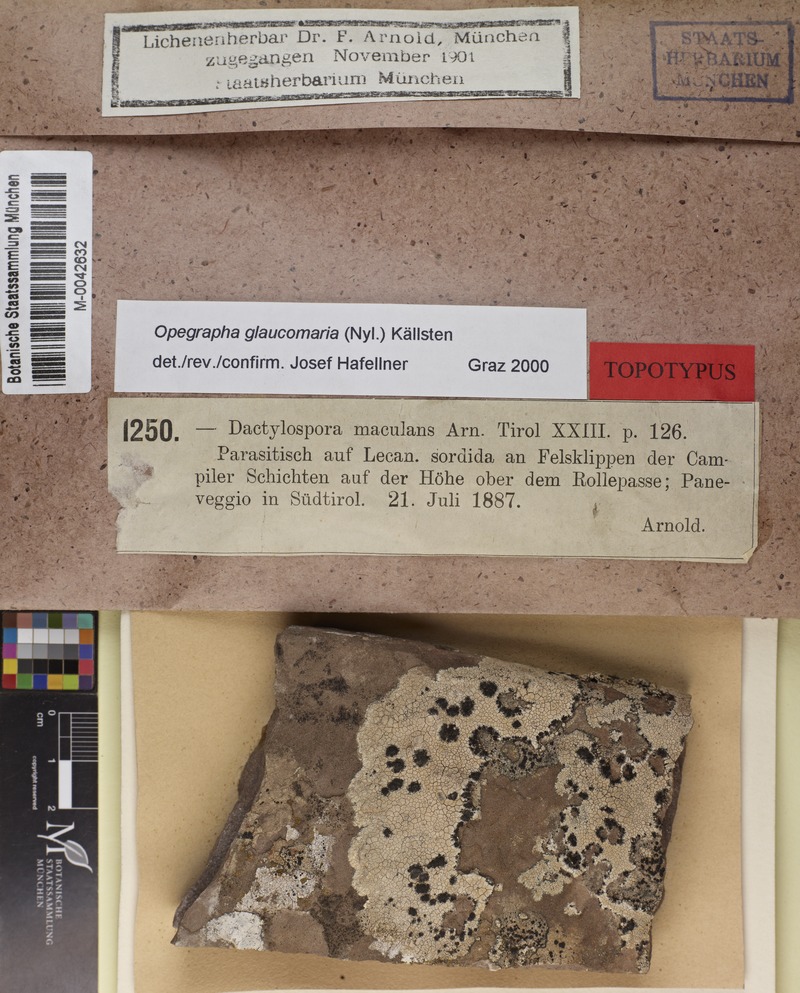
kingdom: Fungi
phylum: Ascomycota
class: Arthoniomycetes
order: Arthoniales
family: Roccellaceae
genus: Phacographa
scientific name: Phacographa glaucomaria
